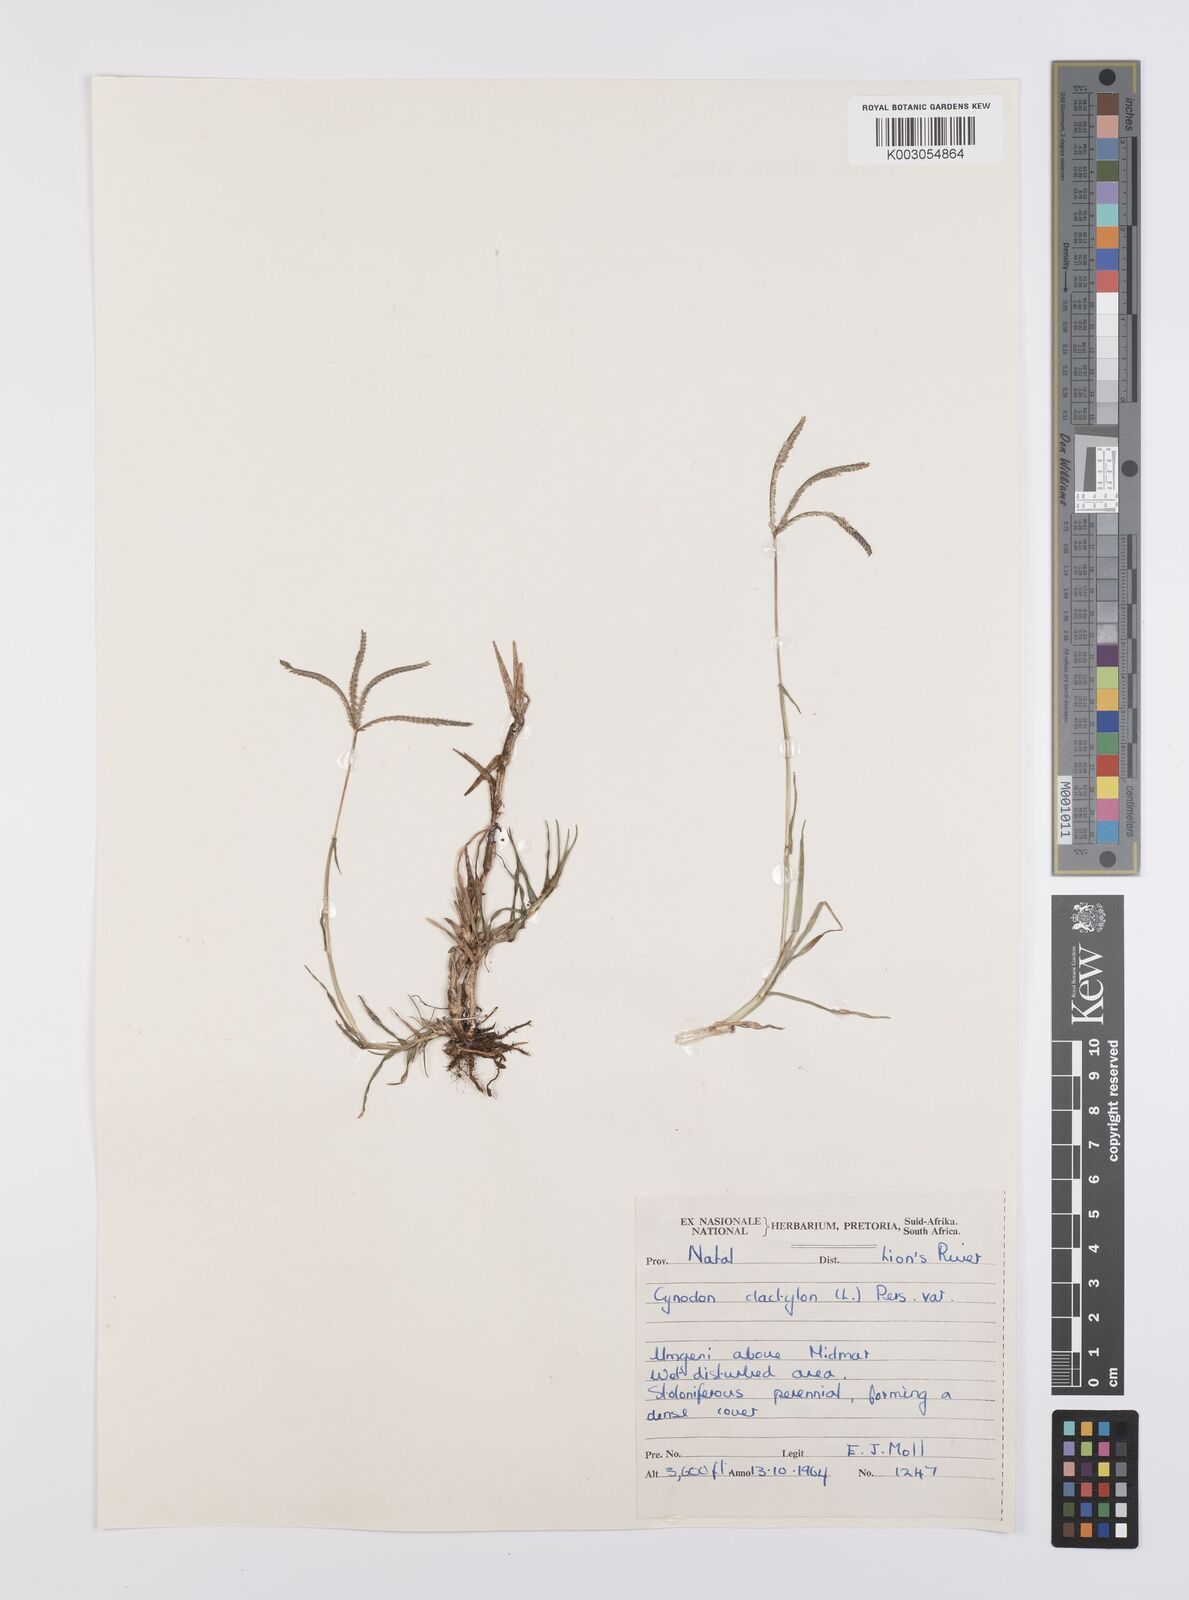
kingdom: Plantae
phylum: Tracheophyta
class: Liliopsida
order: Poales
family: Poaceae
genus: Cynodon
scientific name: Cynodon dactylon
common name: Bermuda grass
